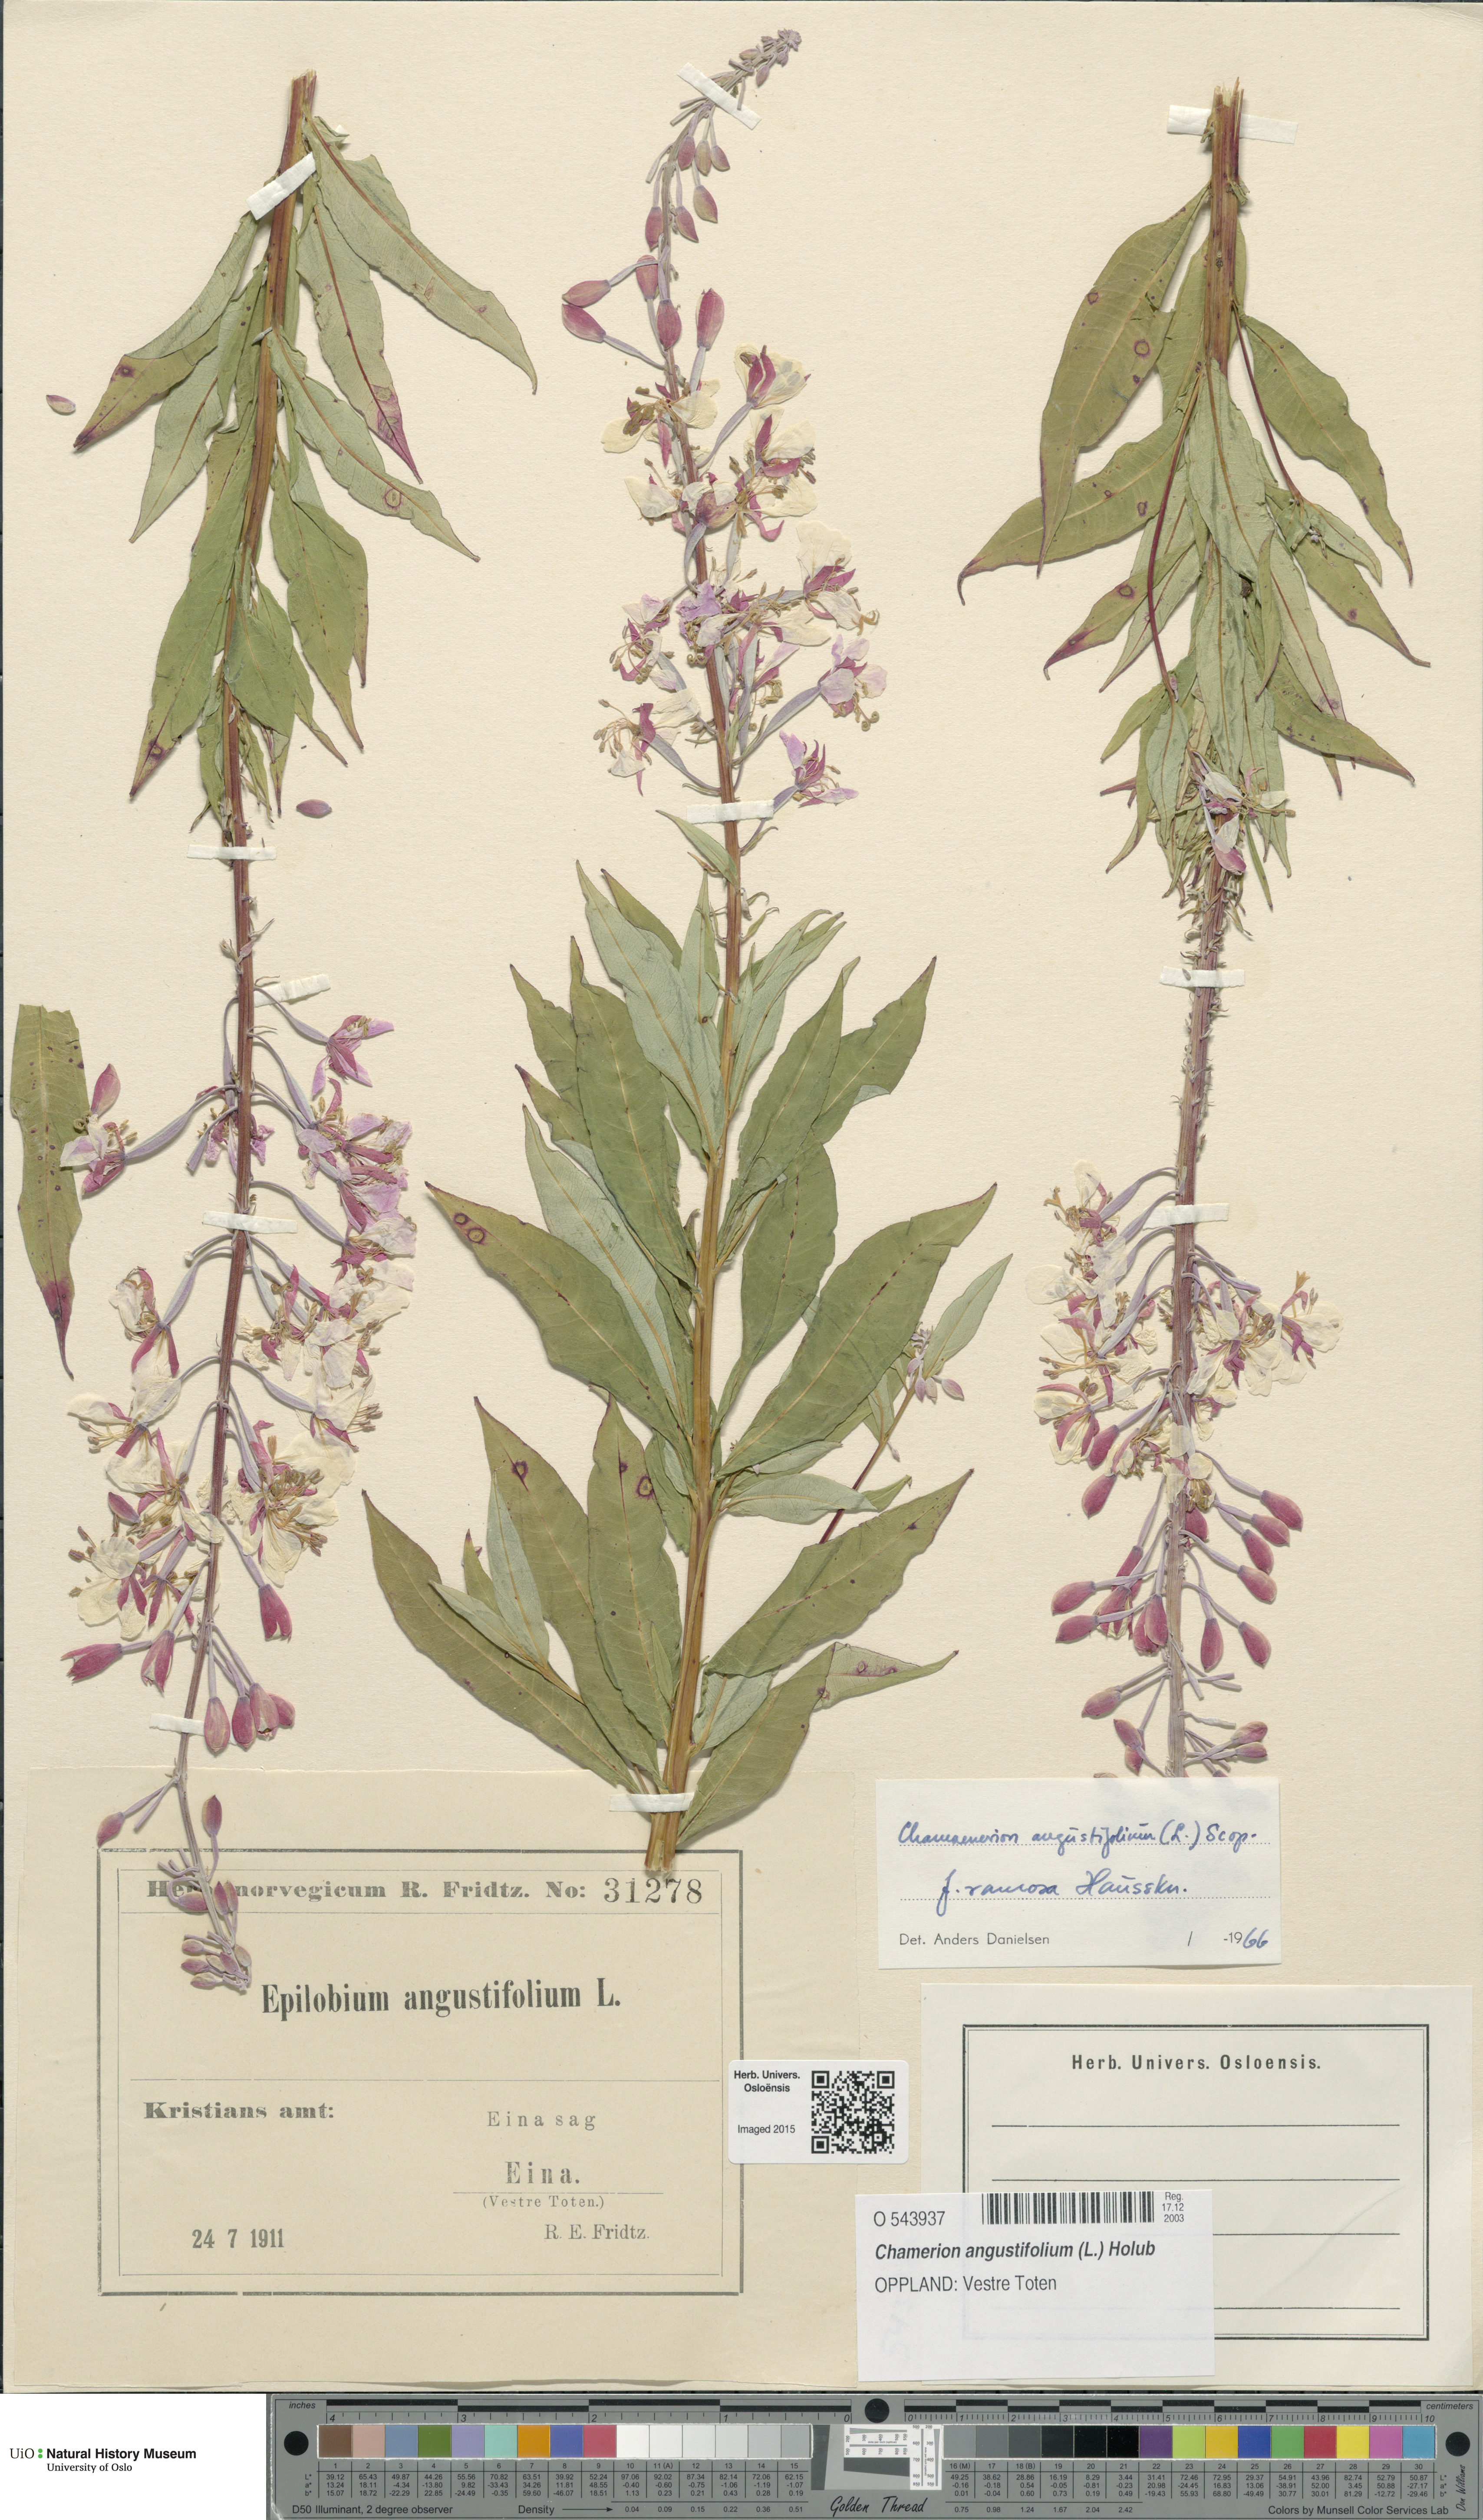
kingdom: Plantae
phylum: Tracheophyta
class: Magnoliopsida
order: Myrtales
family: Onagraceae
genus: Chamaenerion
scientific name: Chamaenerion angustifolium
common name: Fireweed
